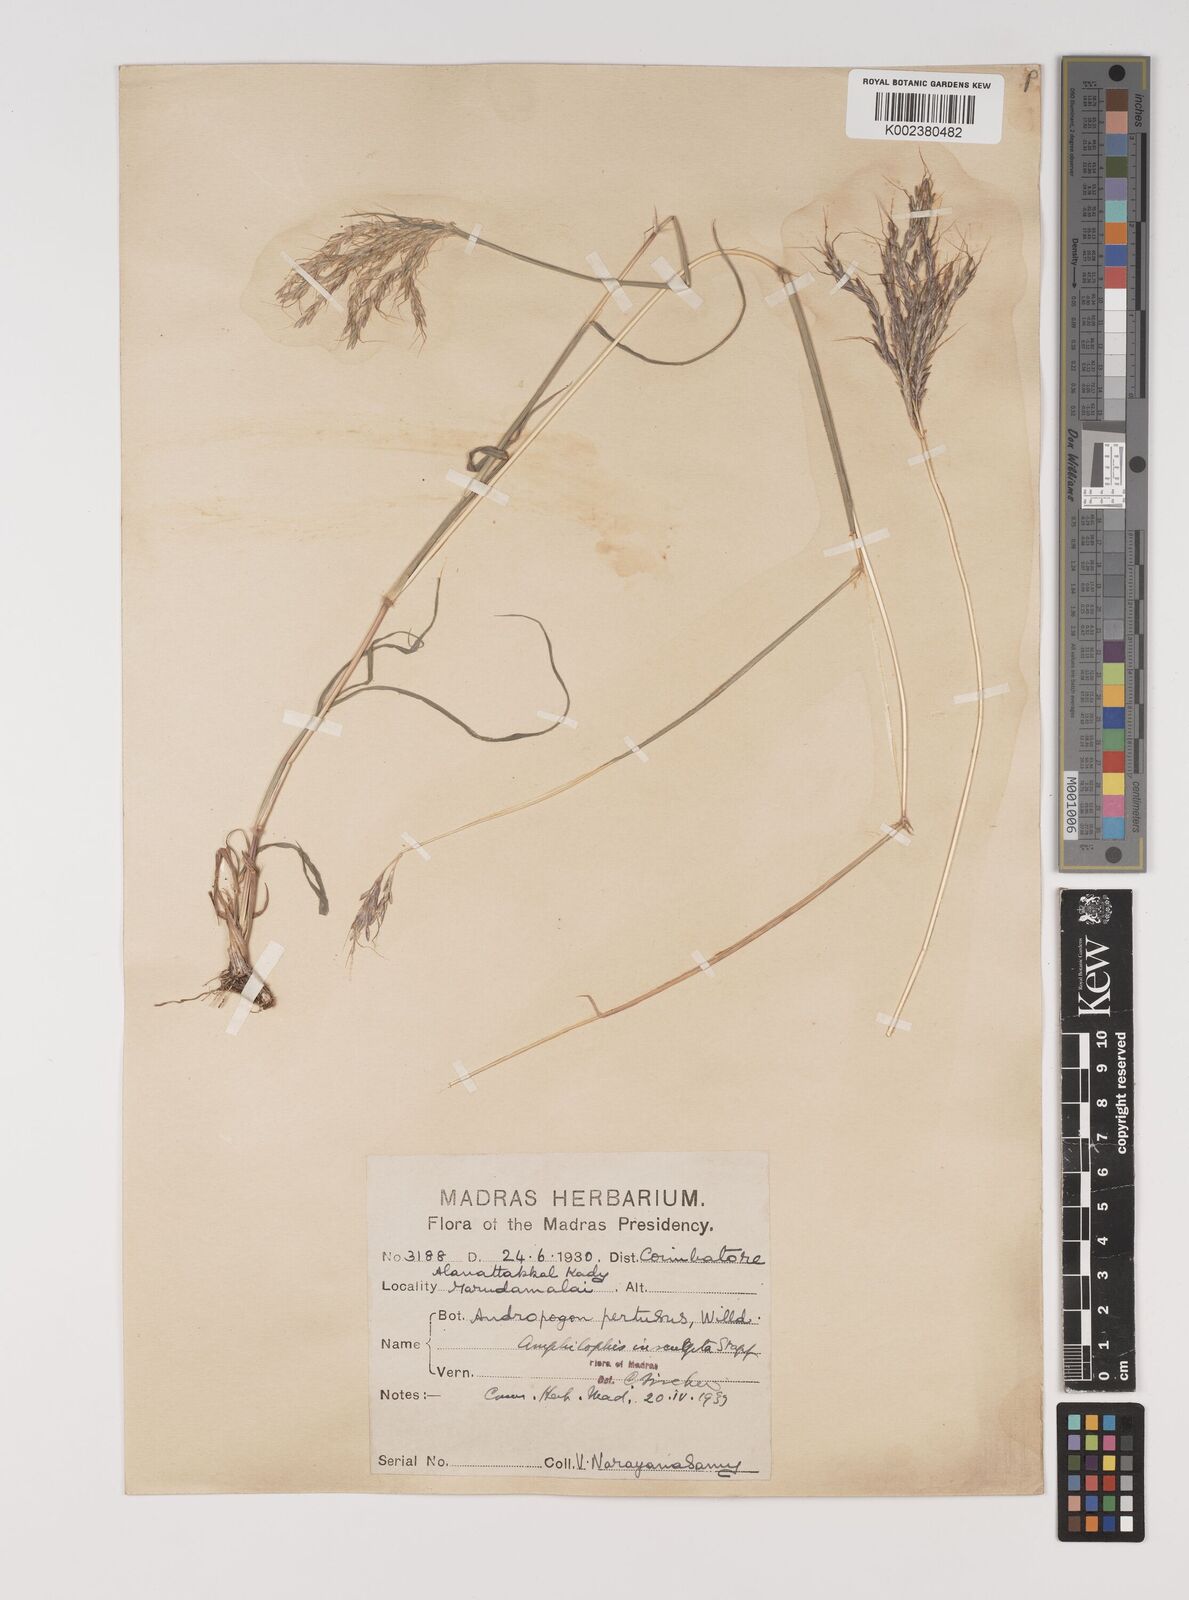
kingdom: Plantae
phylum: Tracheophyta
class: Liliopsida
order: Poales
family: Poaceae
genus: Bothriochloa
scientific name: Bothriochloa insculpta
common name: Creeping-bluegrass
